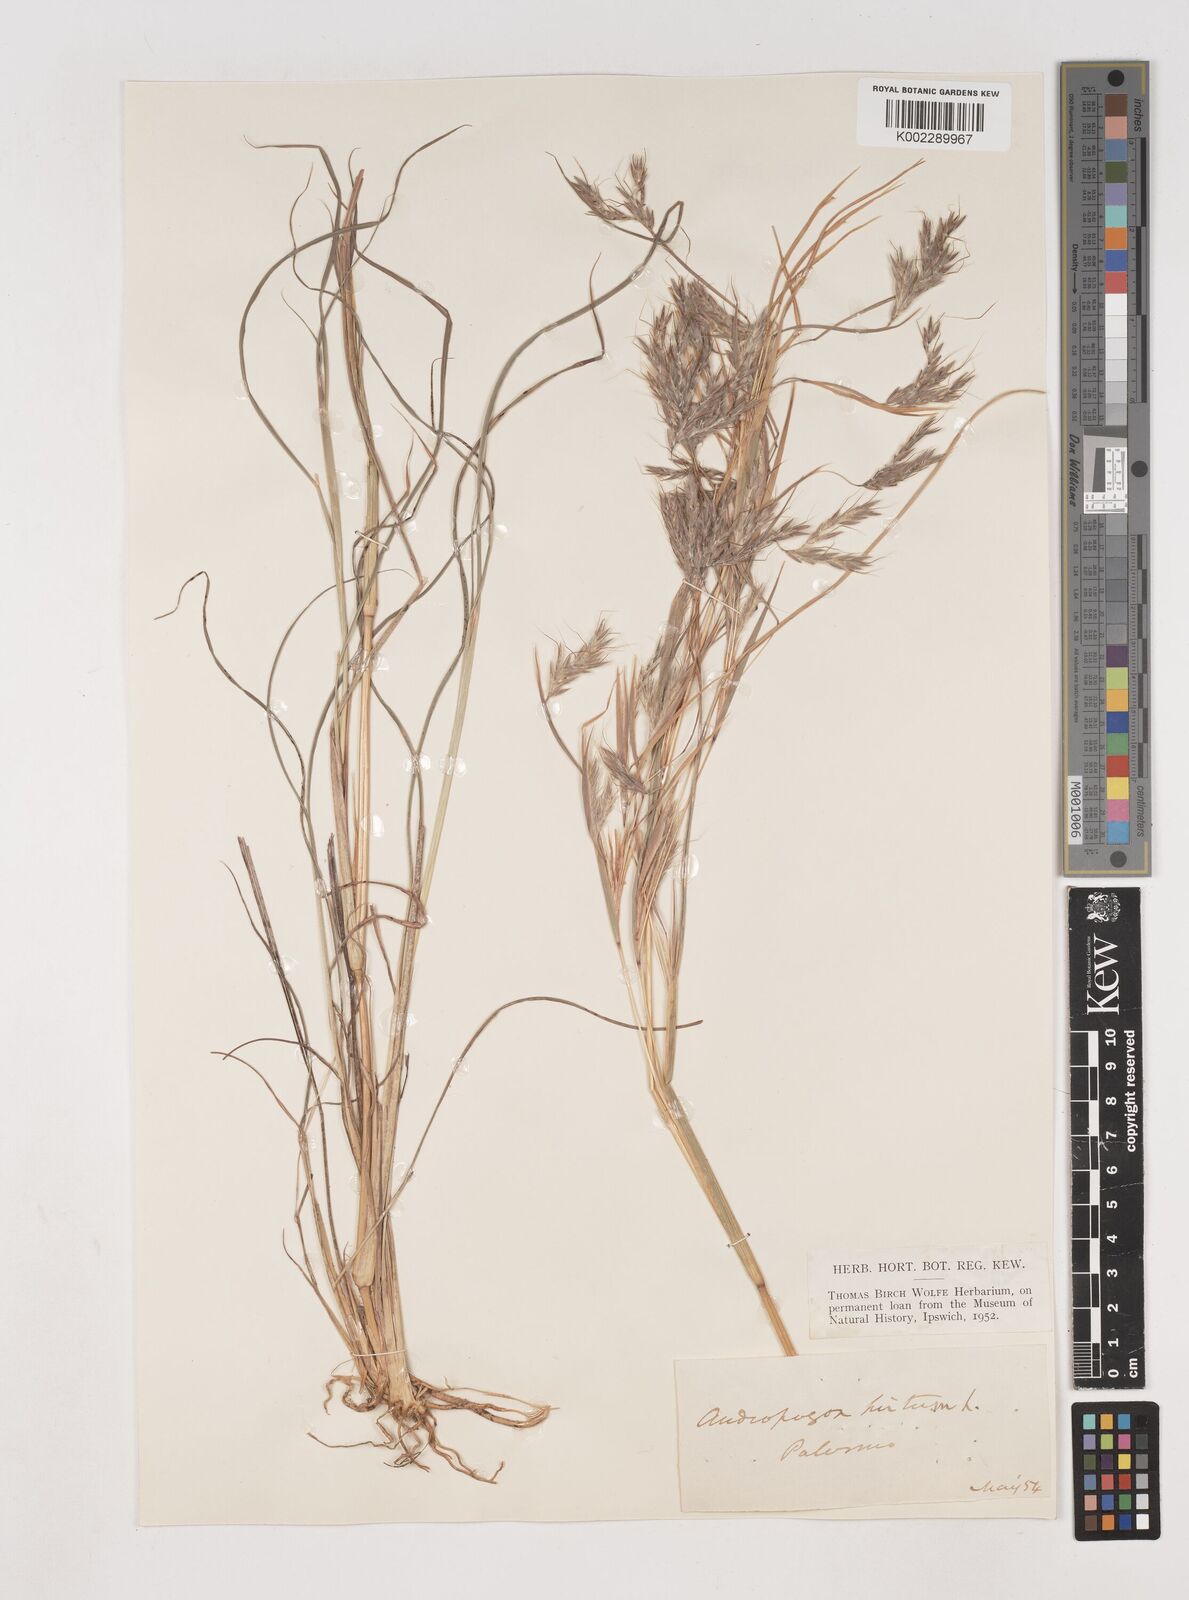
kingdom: Plantae
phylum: Tracheophyta
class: Liliopsida
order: Poales
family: Poaceae
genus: Hyparrhenia
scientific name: Hyparrhenia hirta
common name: Thatching grass
